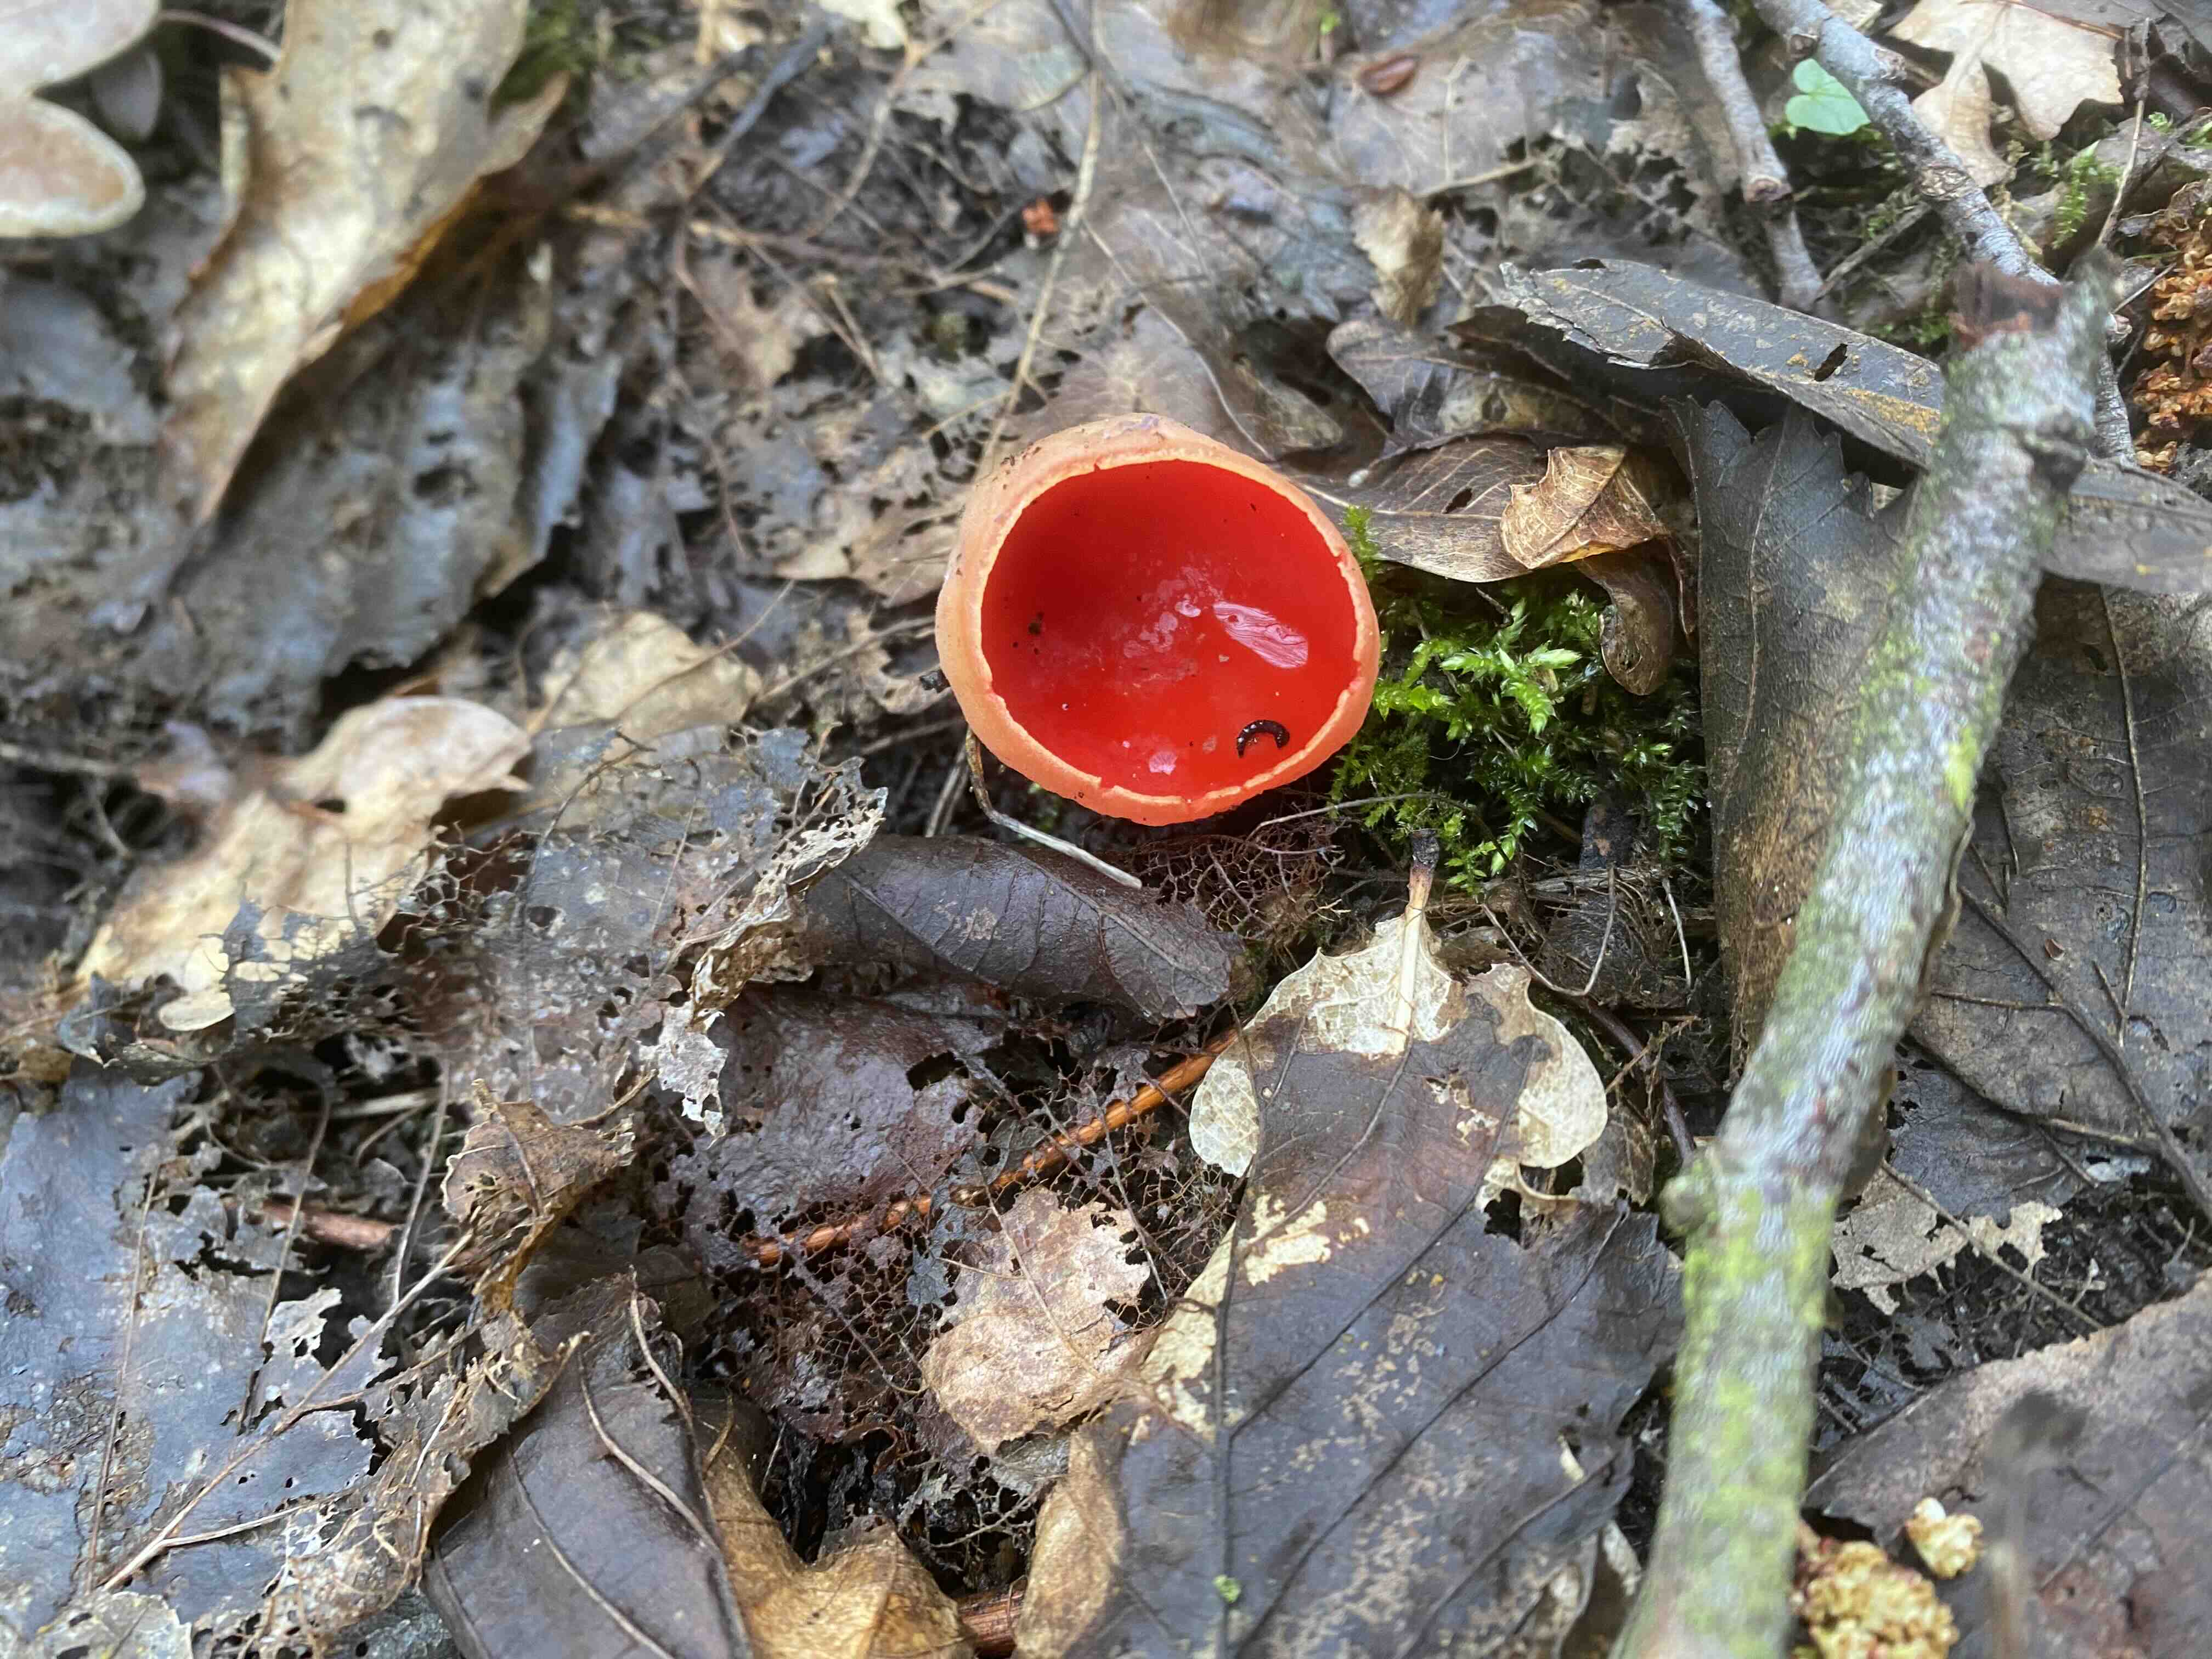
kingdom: Fungi
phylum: Ascomycota
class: Pezizomycetes
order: Pezizales
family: Sarcoscyphaceae
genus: Sarcoscypha
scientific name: Sarcoscypha austriaca
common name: krølhåret pragtbæger
